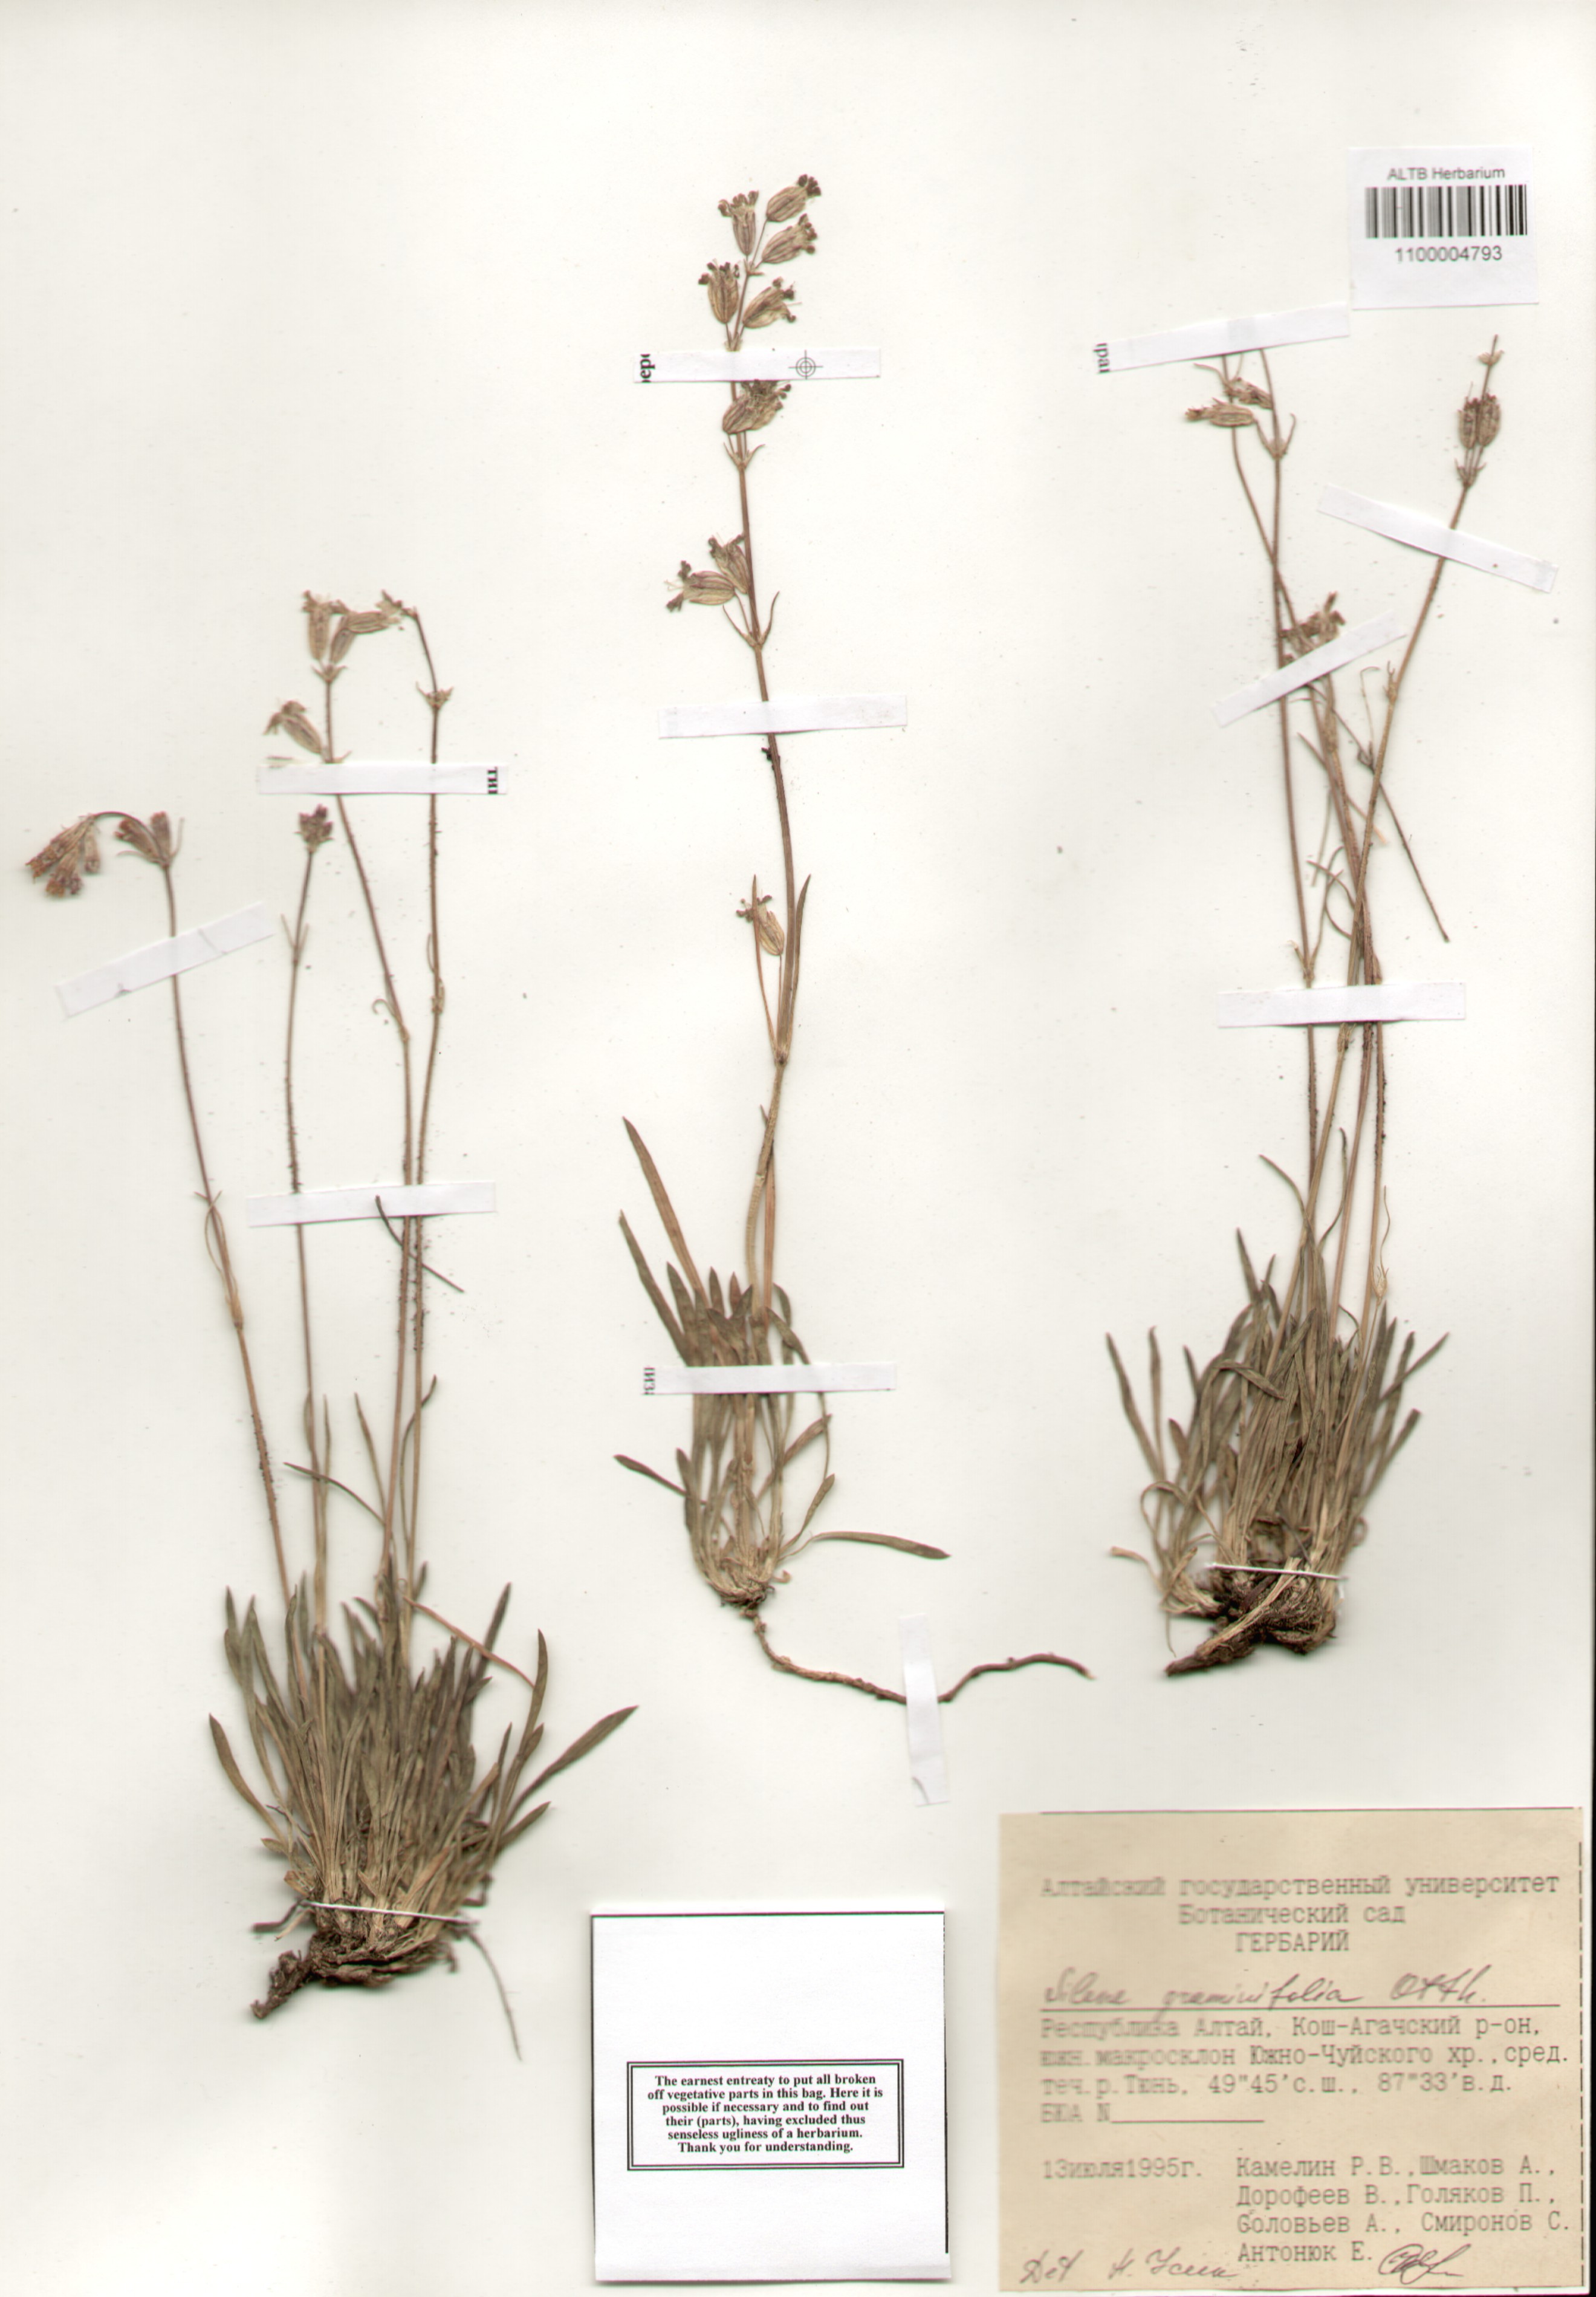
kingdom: Plantae
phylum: Tracheophyta
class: Magnoliopsida
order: Caryophyllales
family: Caryophyllaceae
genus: Silene
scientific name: Silene graminifolia
